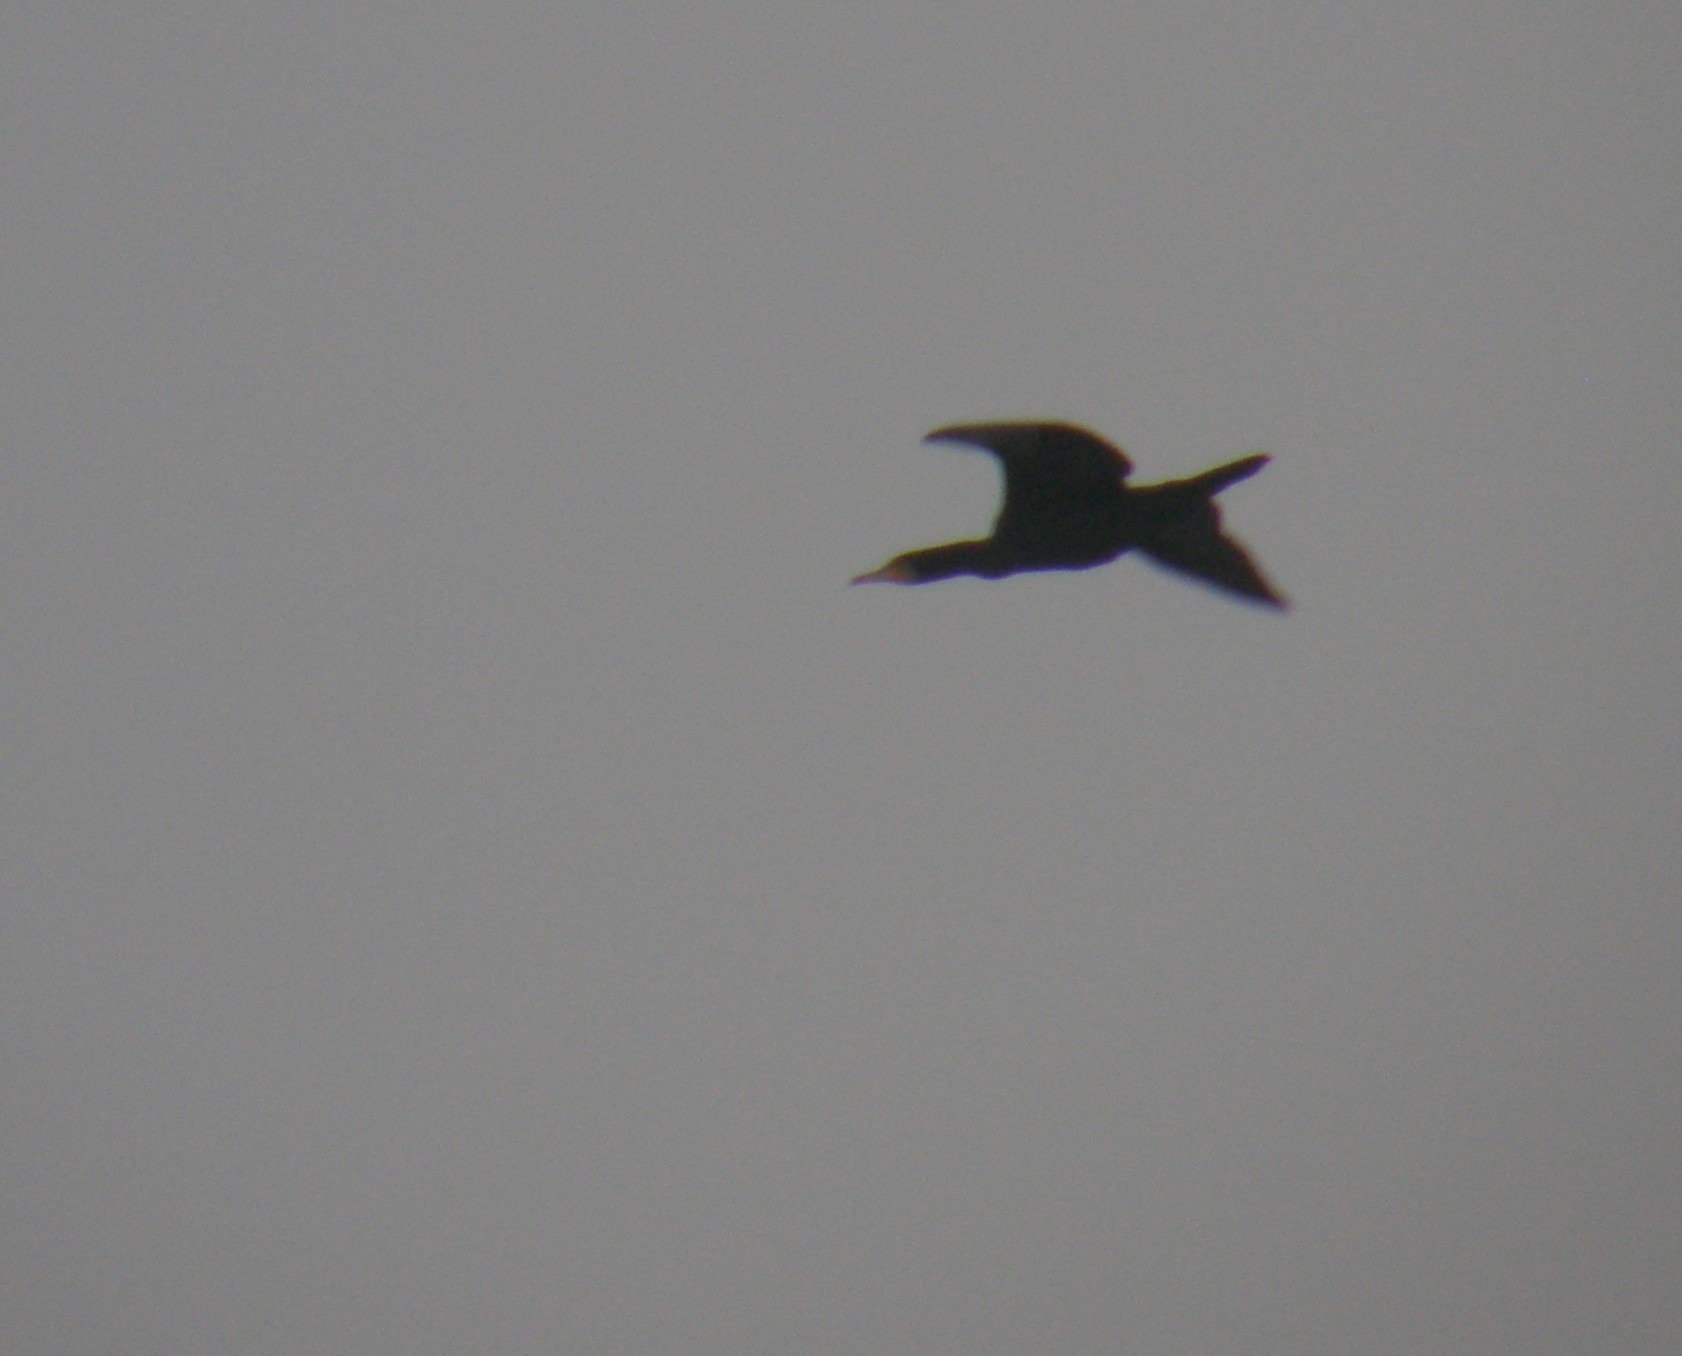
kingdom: Animalia
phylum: Chordata
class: Aves
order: Suliformes
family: Phalacrocoracidae
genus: Phalacrocorax
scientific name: Phalacrocorax carbo
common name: Skarv
